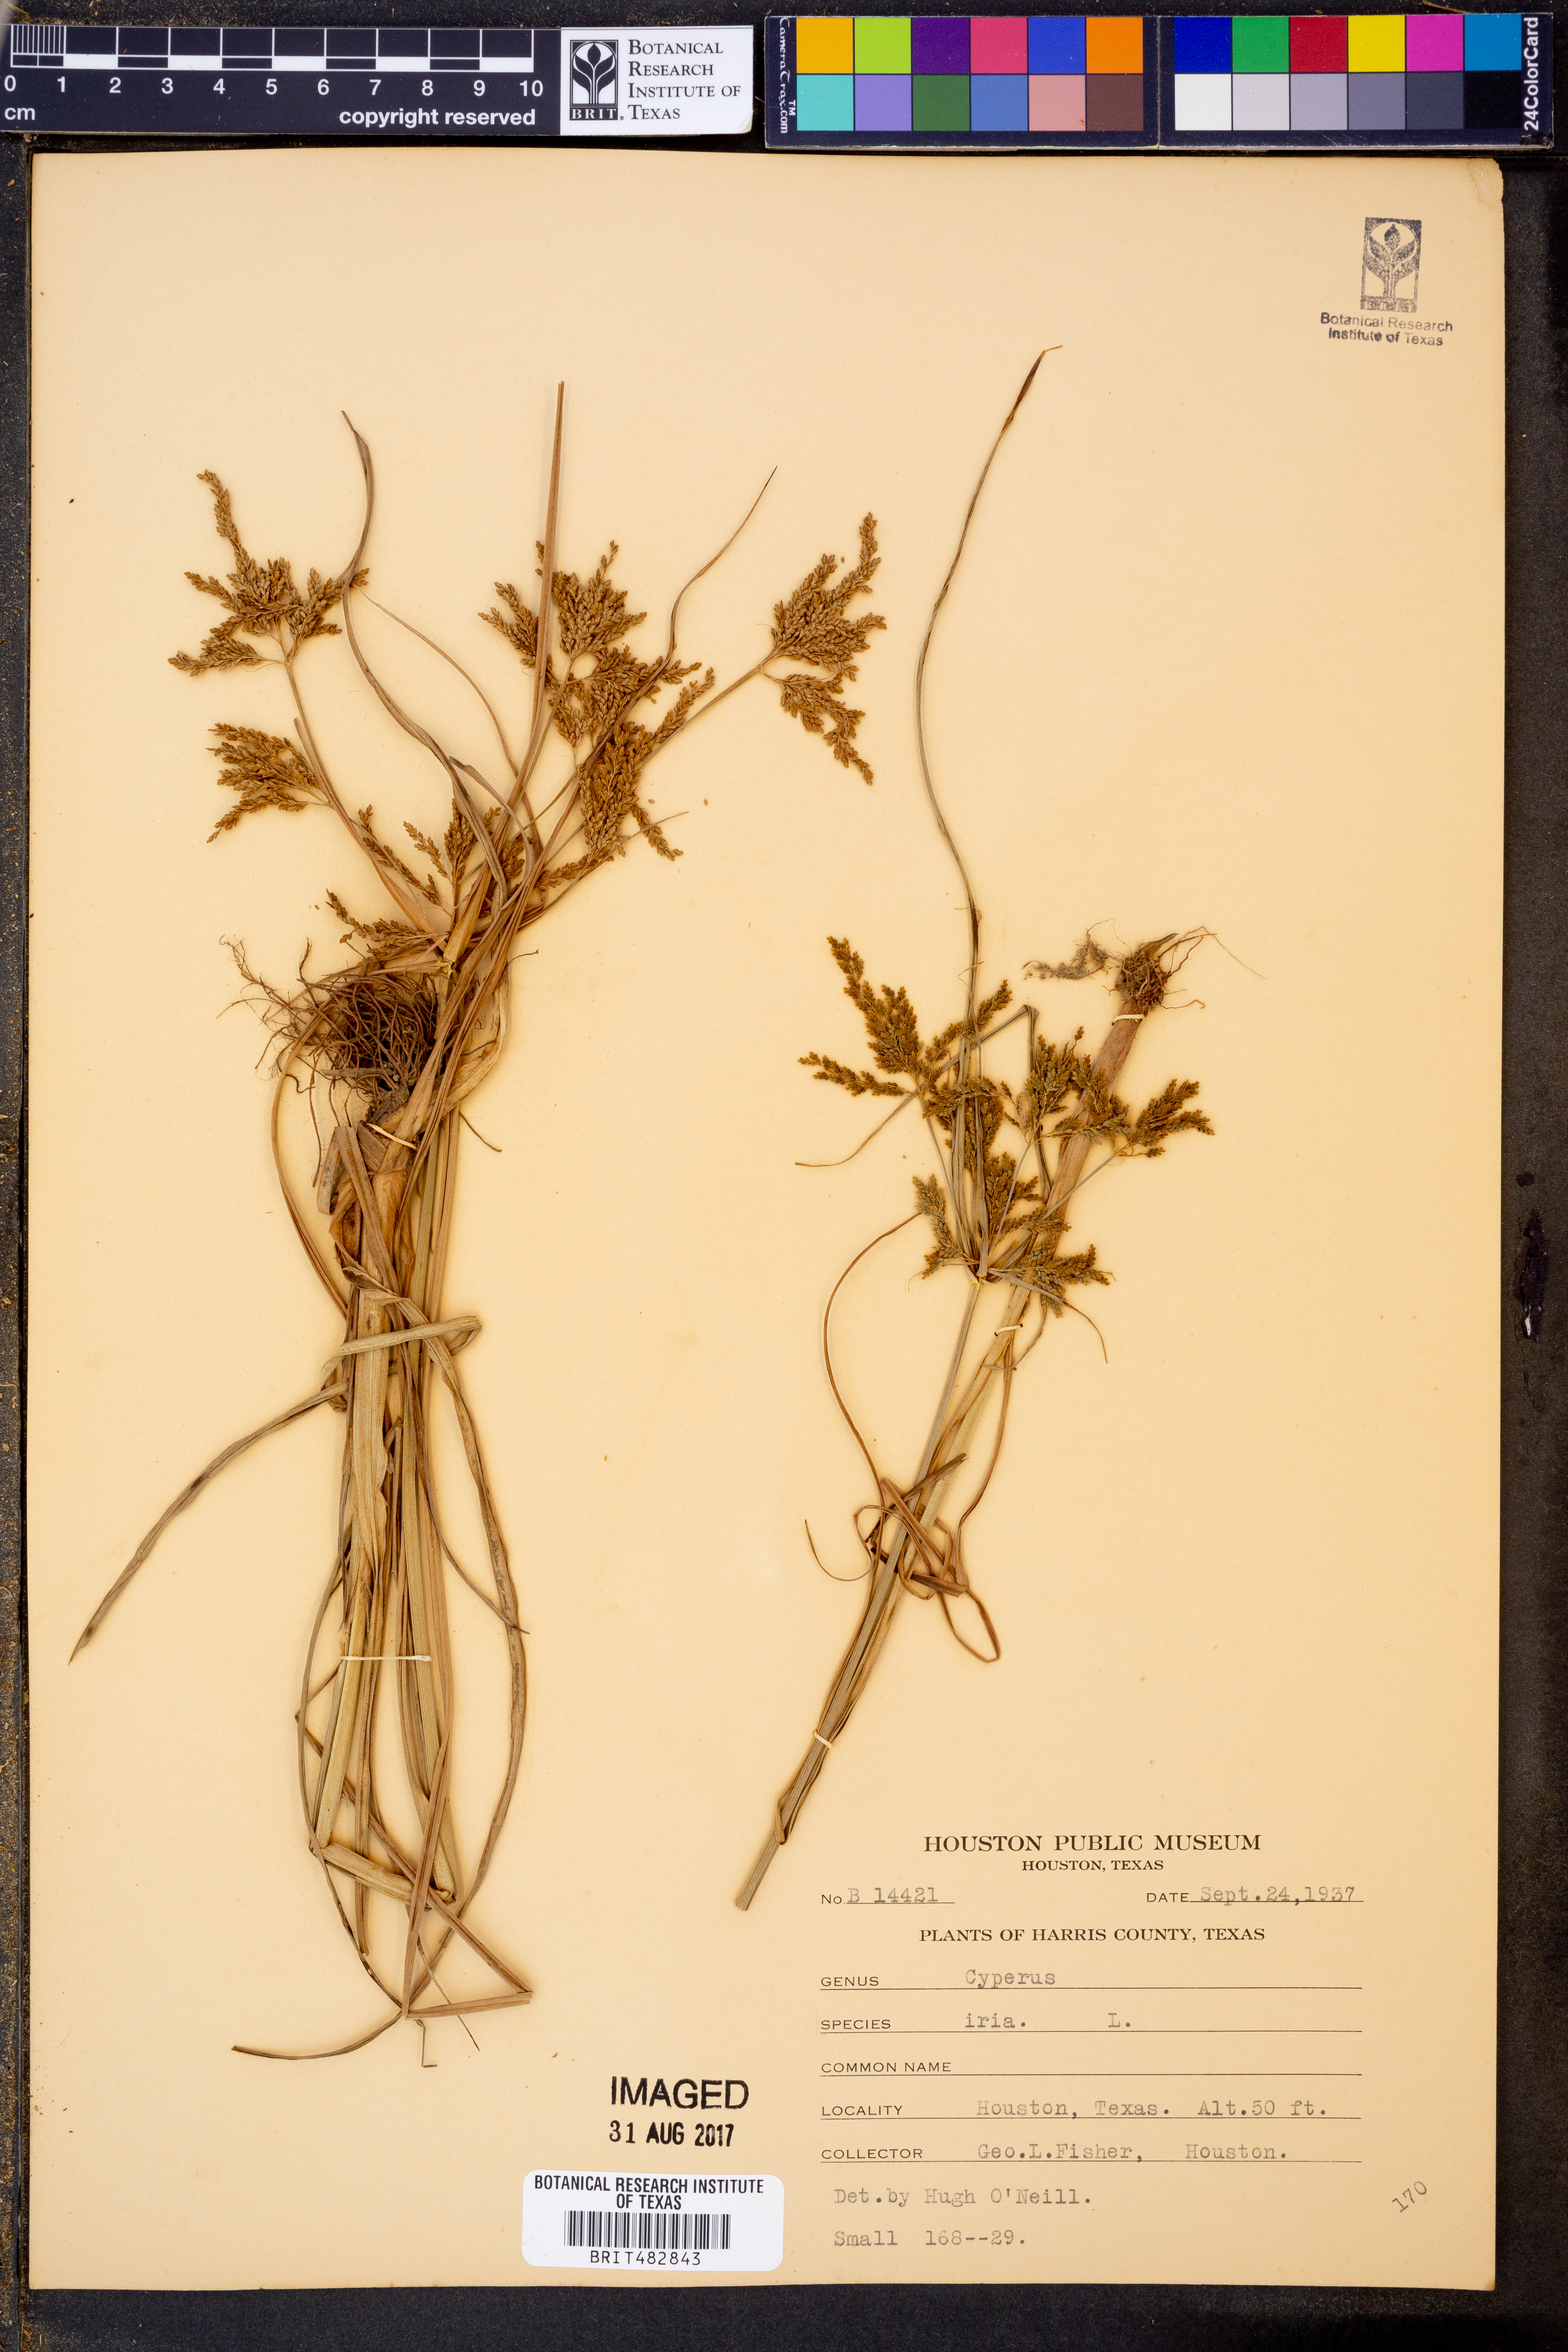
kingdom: Plantae
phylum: Tracheophyta
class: Liliopsida
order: Poales
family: Cyperaceae
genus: Cyperus
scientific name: Cyperus iria
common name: Ricefield flatsedge
